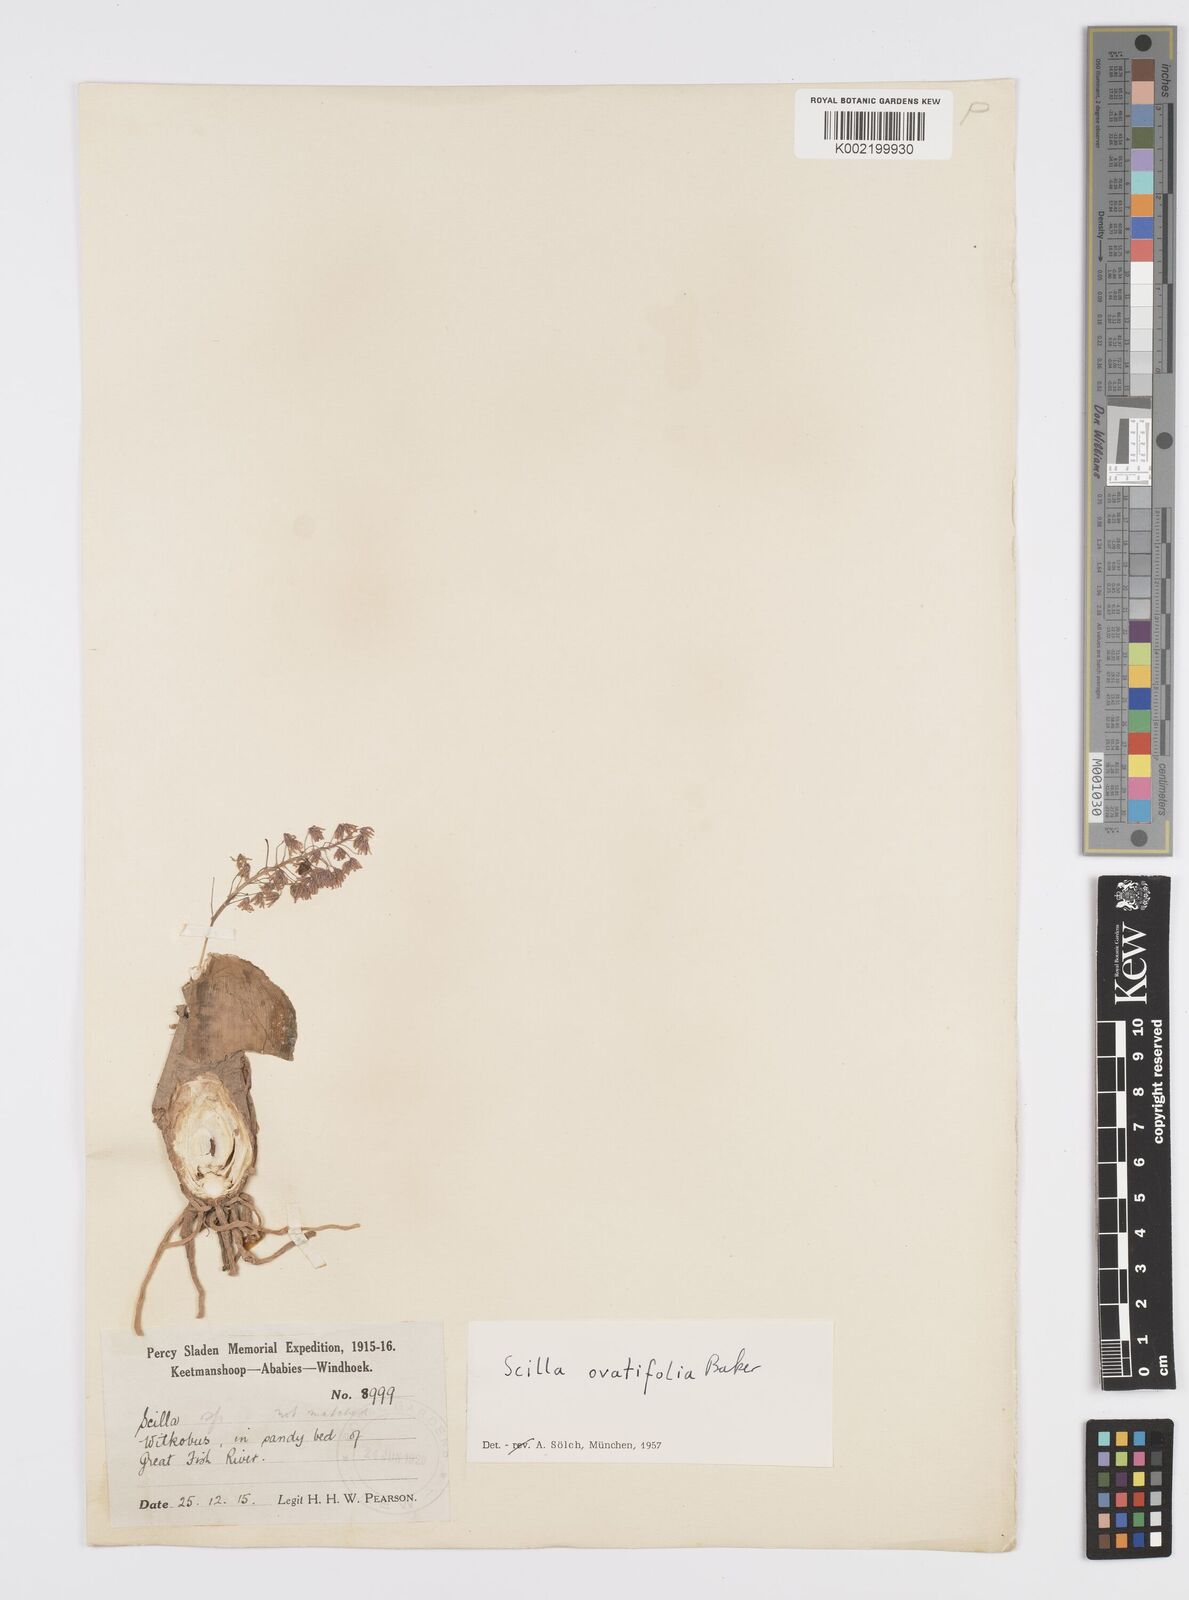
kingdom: Plantae
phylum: Tracheophyta
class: Liliopsida
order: Asparagales
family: Asparagaceae
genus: Ledebouria
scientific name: Ledebouria revoluta
